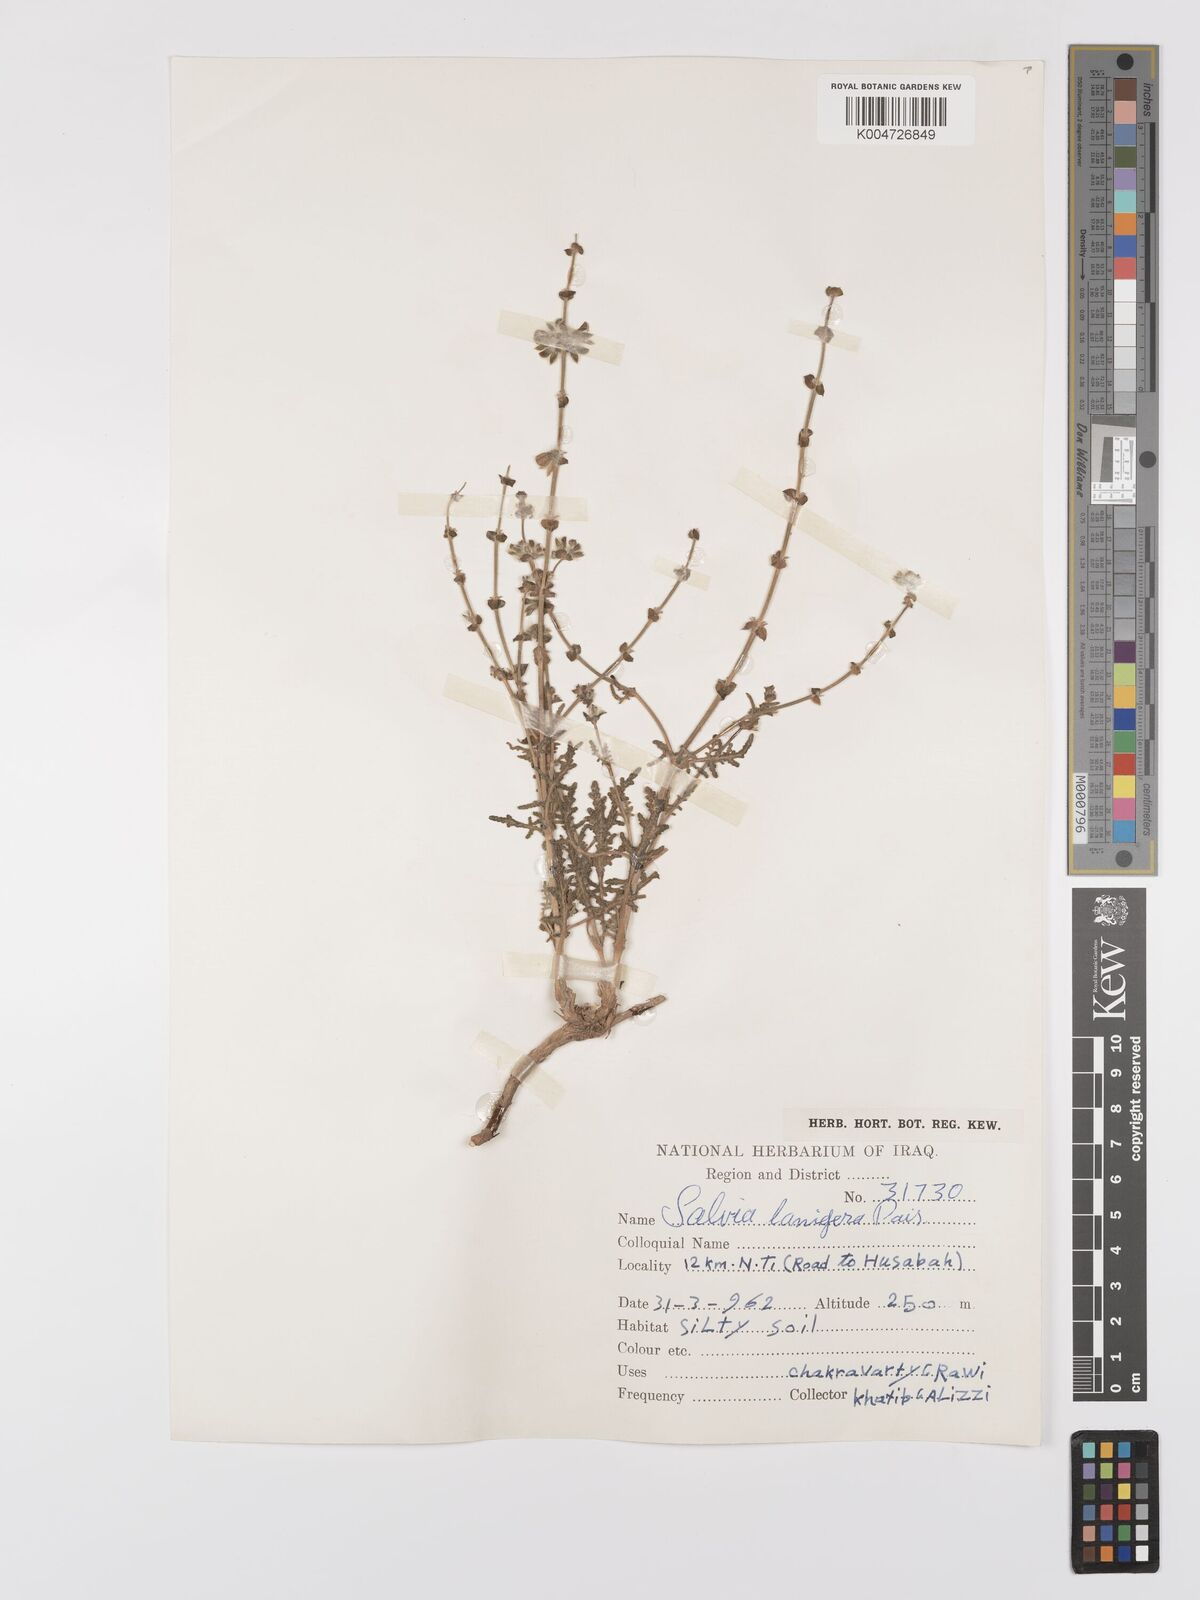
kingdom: Plantae
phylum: Tracheophyta
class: Magnoliopsida
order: Lamiales
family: Lamiaceae
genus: Salvia
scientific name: Salvia
